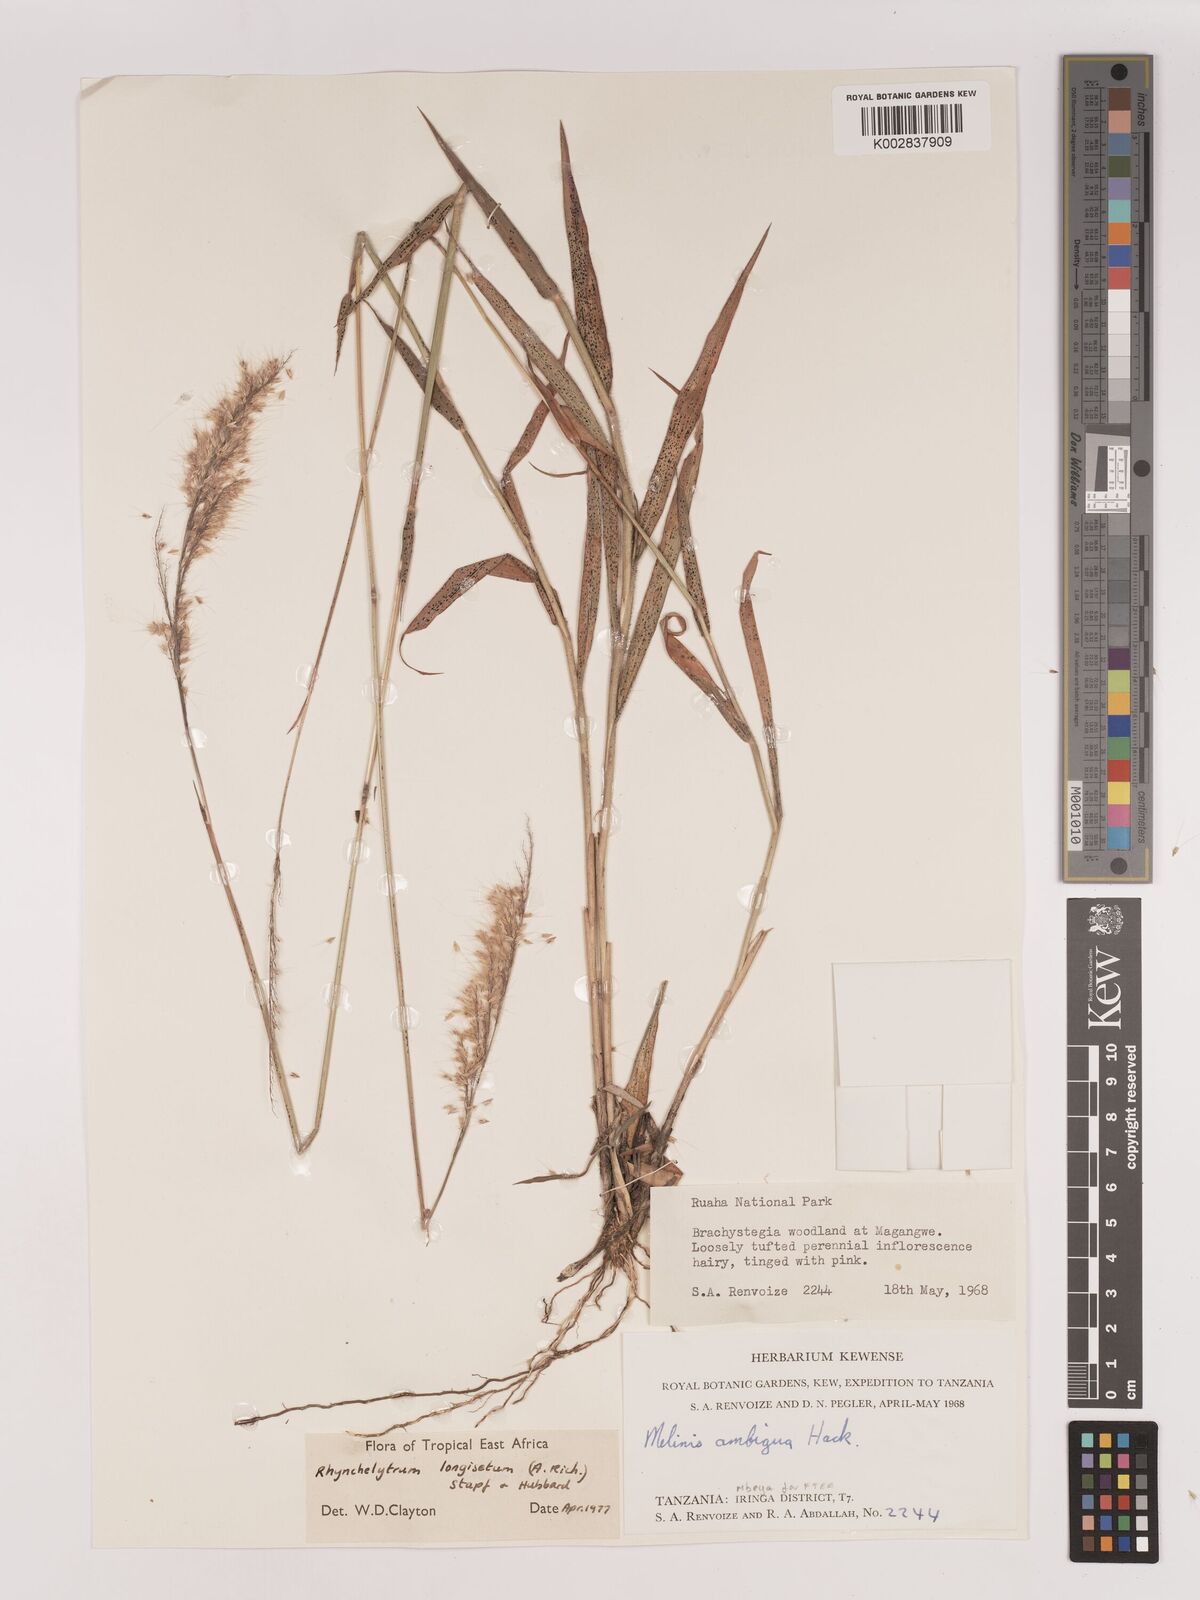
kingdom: Plantae
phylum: Tracheophyta
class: Liliopsida
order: Poales
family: Poaceae
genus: Melinis
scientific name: Melinis longiseta
